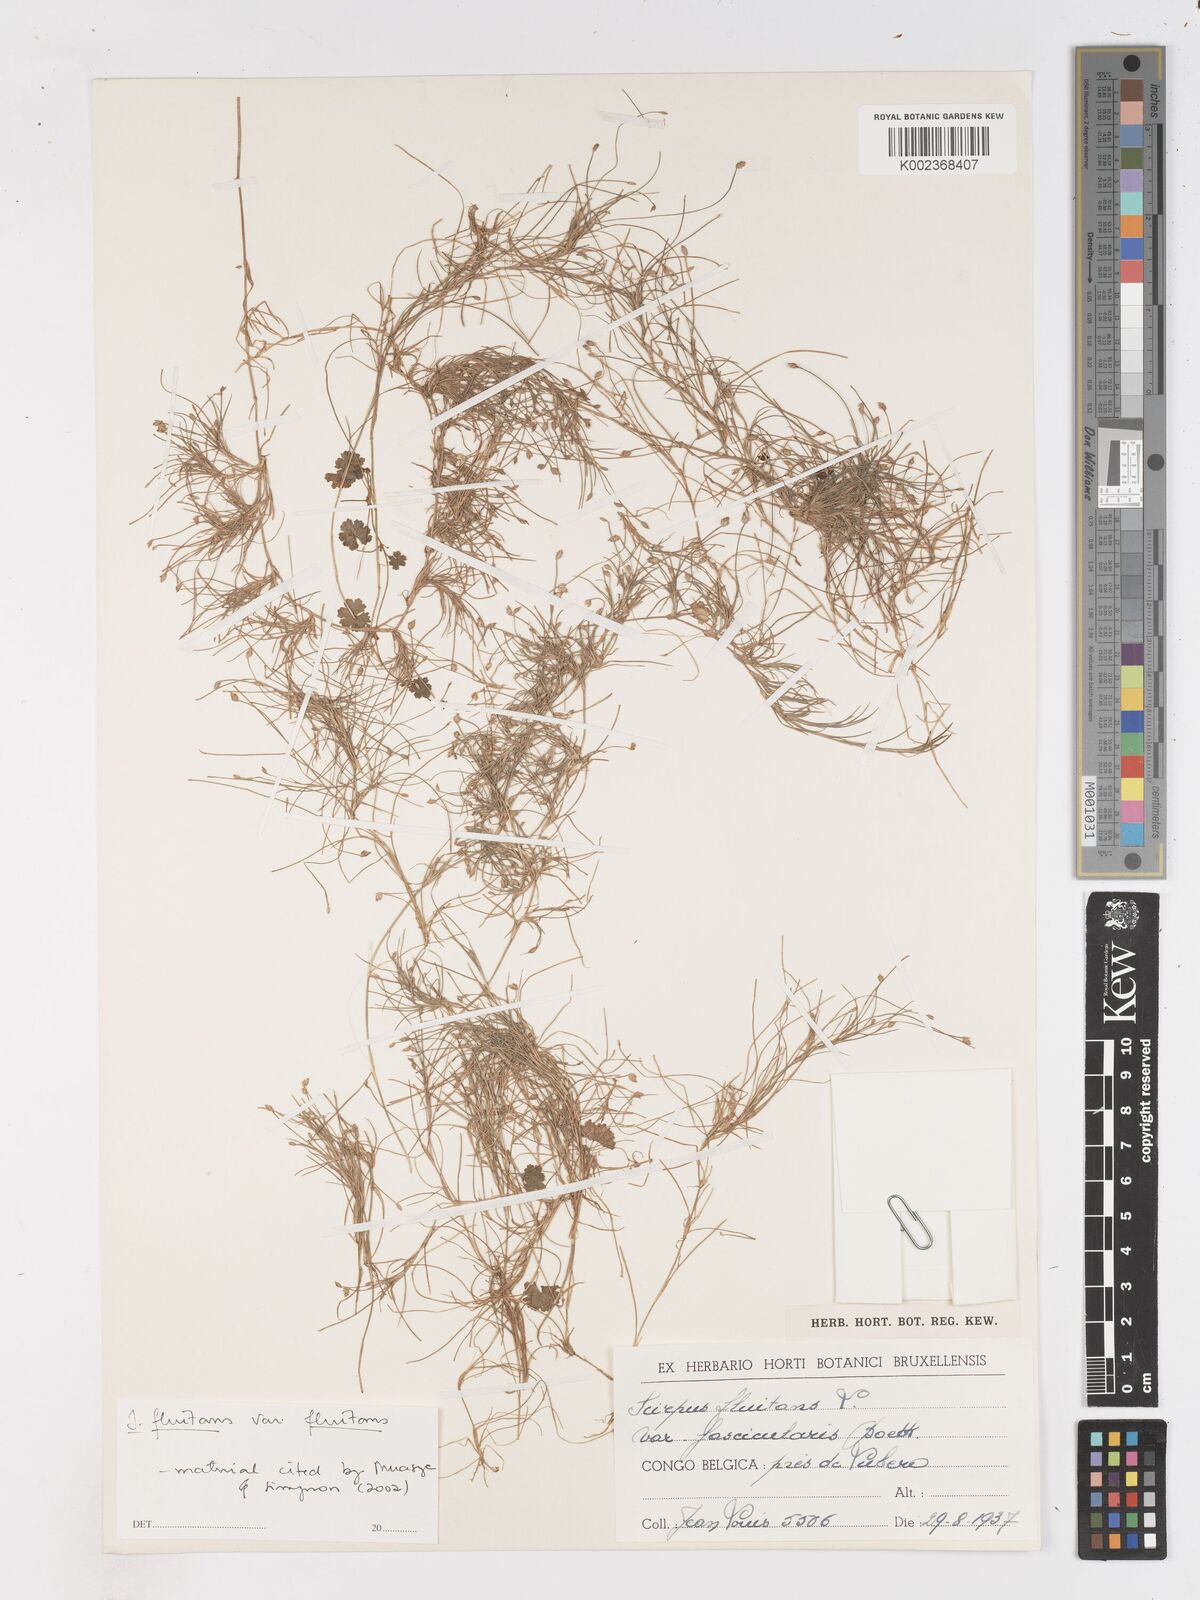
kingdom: Plantae
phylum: Tracheophyta
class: Liliopsida
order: Poales
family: Cyperaceae
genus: Isolepis
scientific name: Isolepis fluitans
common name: Floating club-rush
